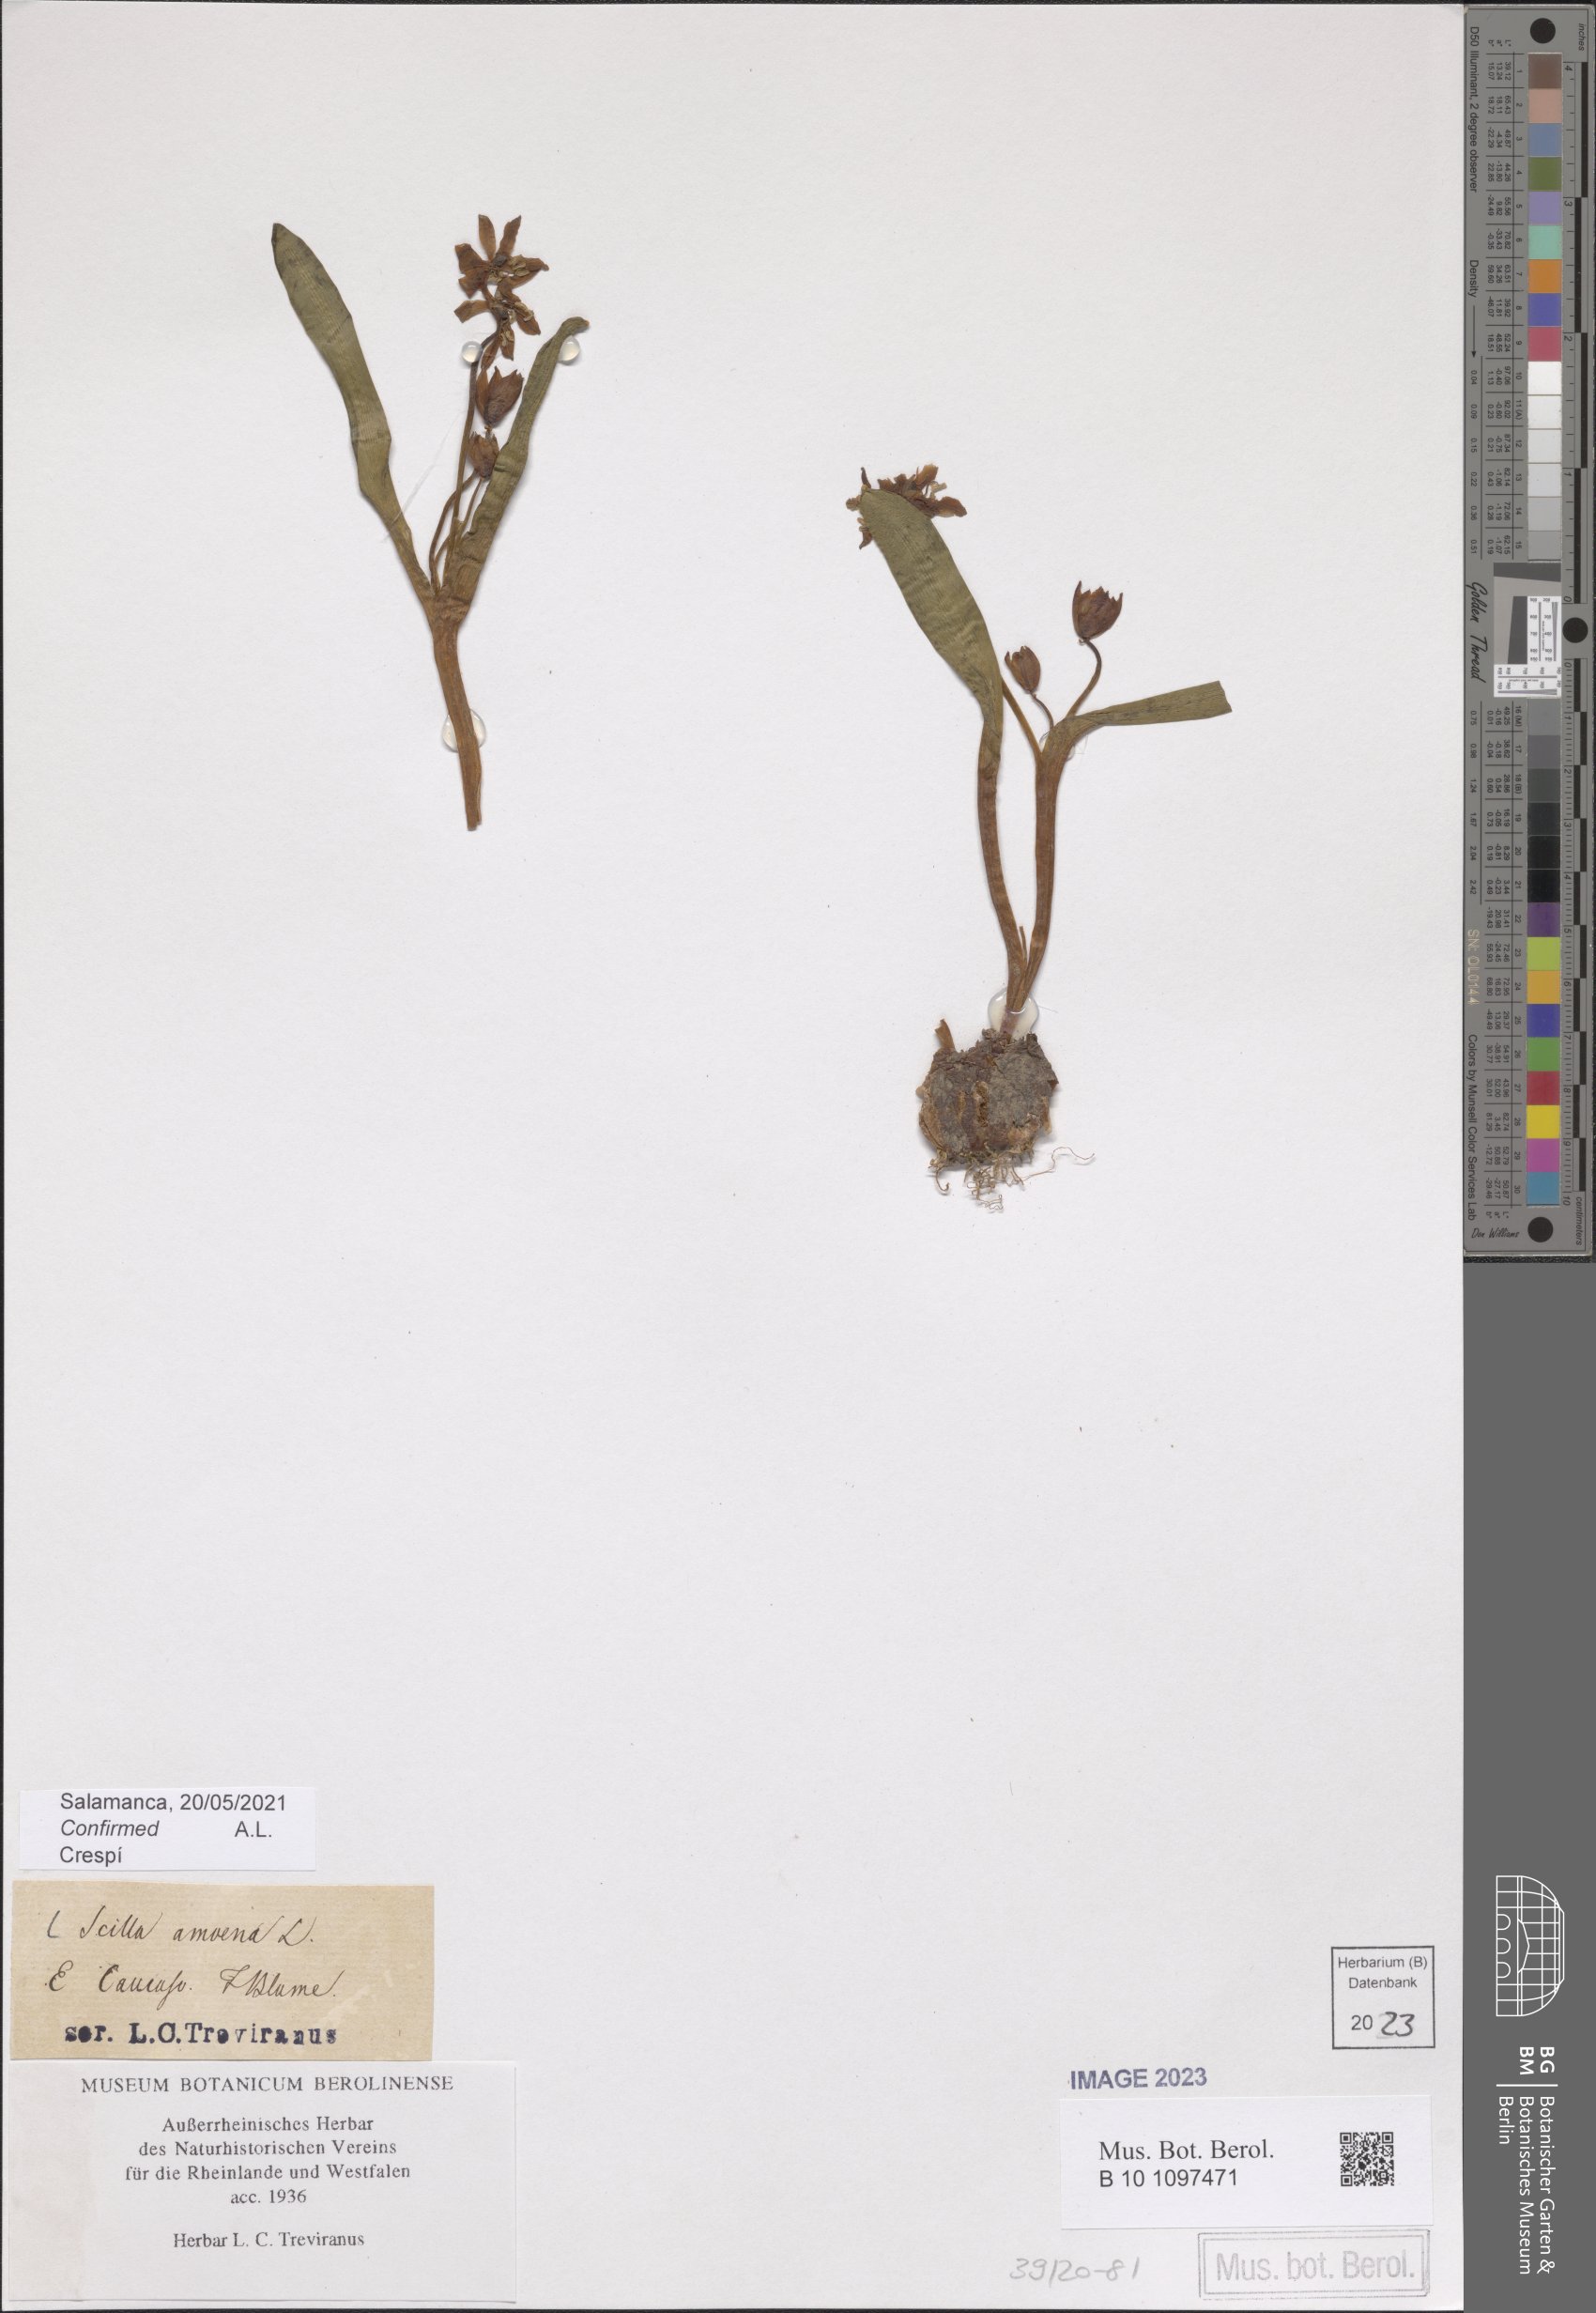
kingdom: Plantae
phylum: Tracheophyta
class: Liliopsida
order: Asparagales
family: Asparagaceae
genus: Scilla
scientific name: Scilla amoena
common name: Star-hyacinth
